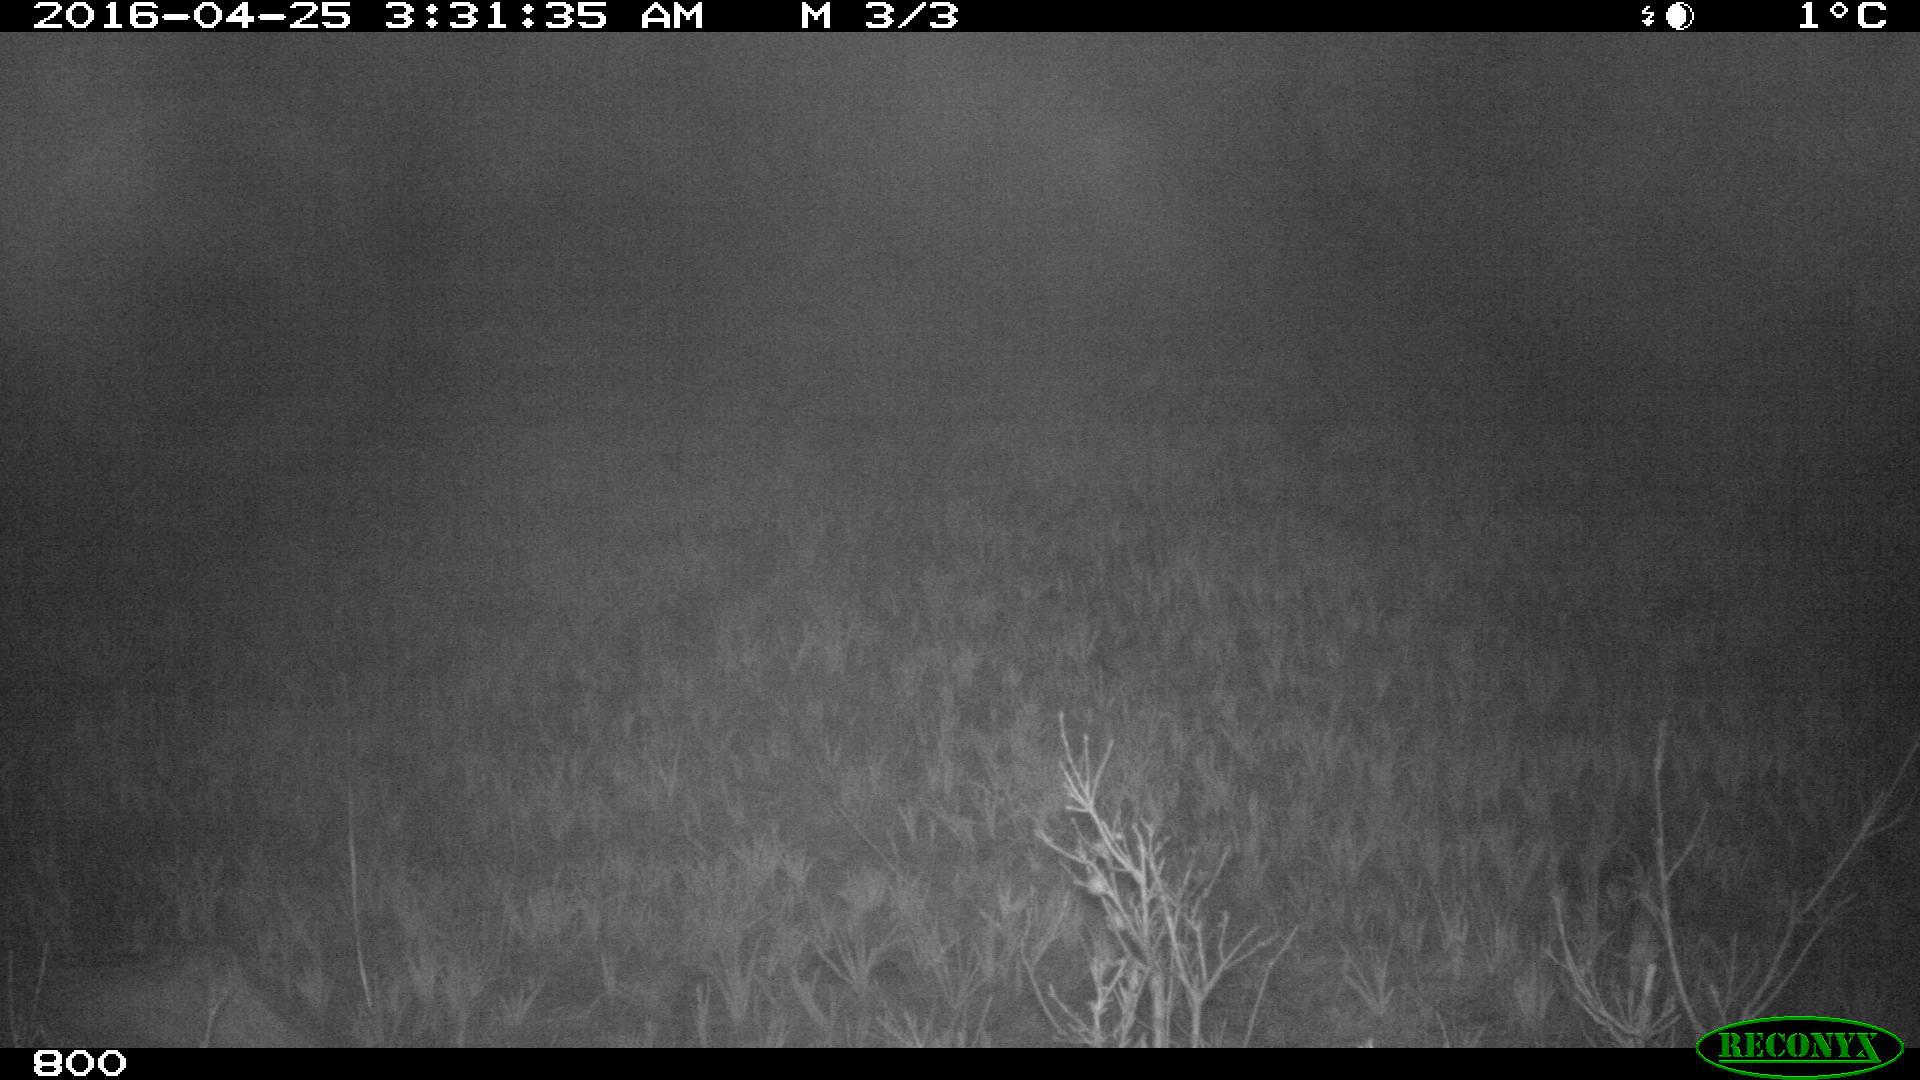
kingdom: Animalia
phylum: Chordata
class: Mammalia
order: Artiodactyla
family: Bovidae
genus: Bos
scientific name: Bos taurus
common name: Domesticated cattle
